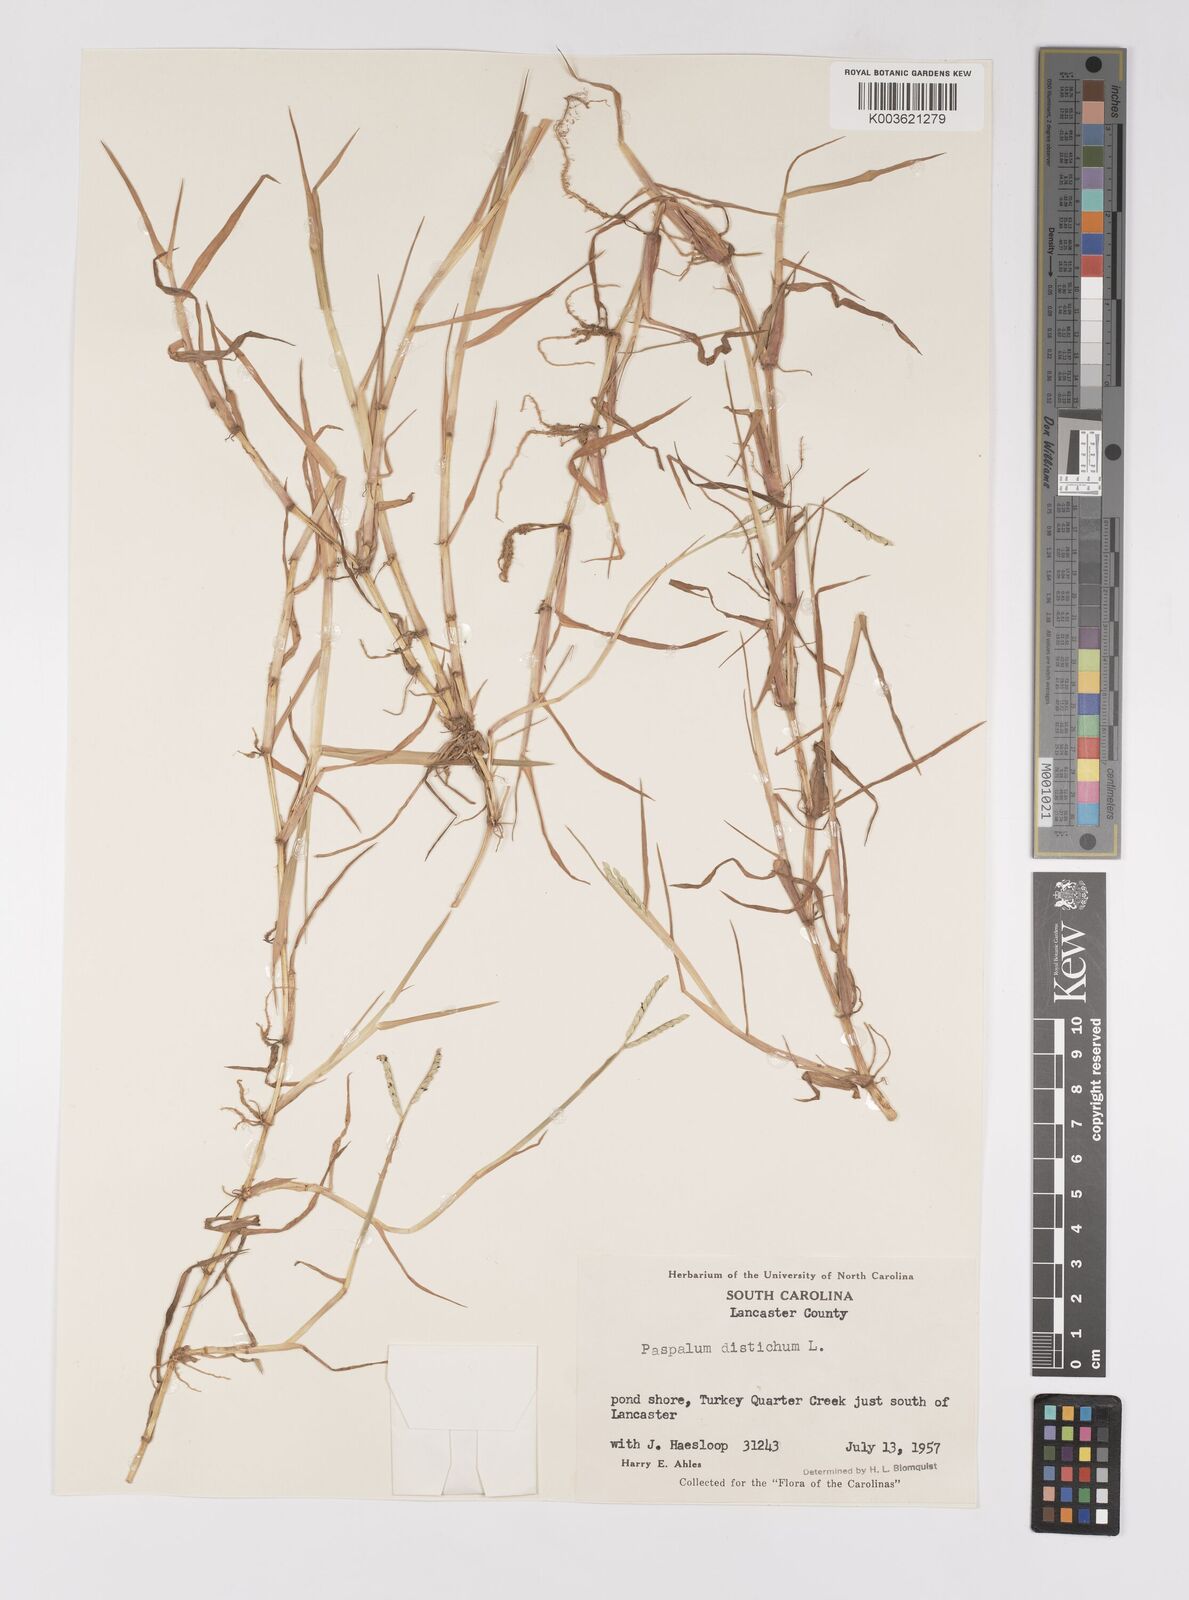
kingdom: Plantae
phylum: Tracheophyta
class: Liliopsida
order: Poales
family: Poaceae
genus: Paspalum
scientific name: Paspalum distichum
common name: Knotgrass
